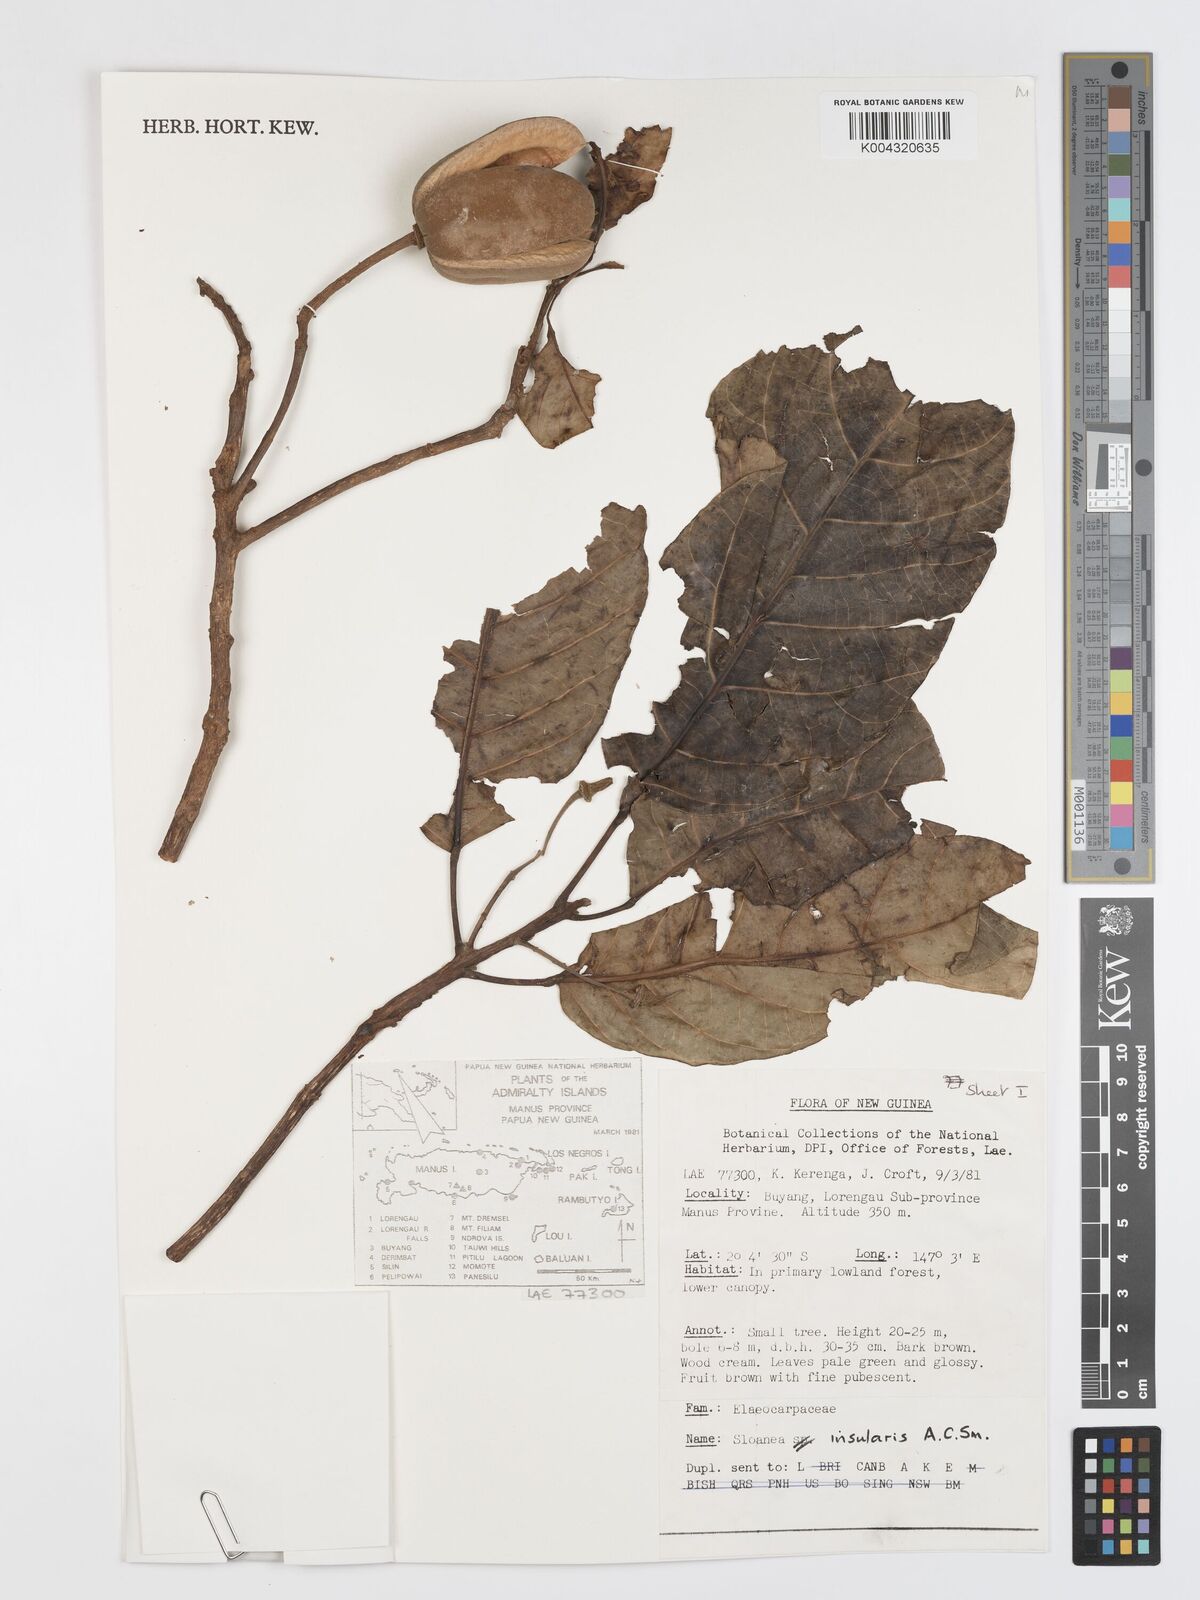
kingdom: Plantae
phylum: Tracheophyta
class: Magnoliopsida
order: Oxalidales
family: Elaeocarpaceae
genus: Sloanea
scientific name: Sloanea insularis
